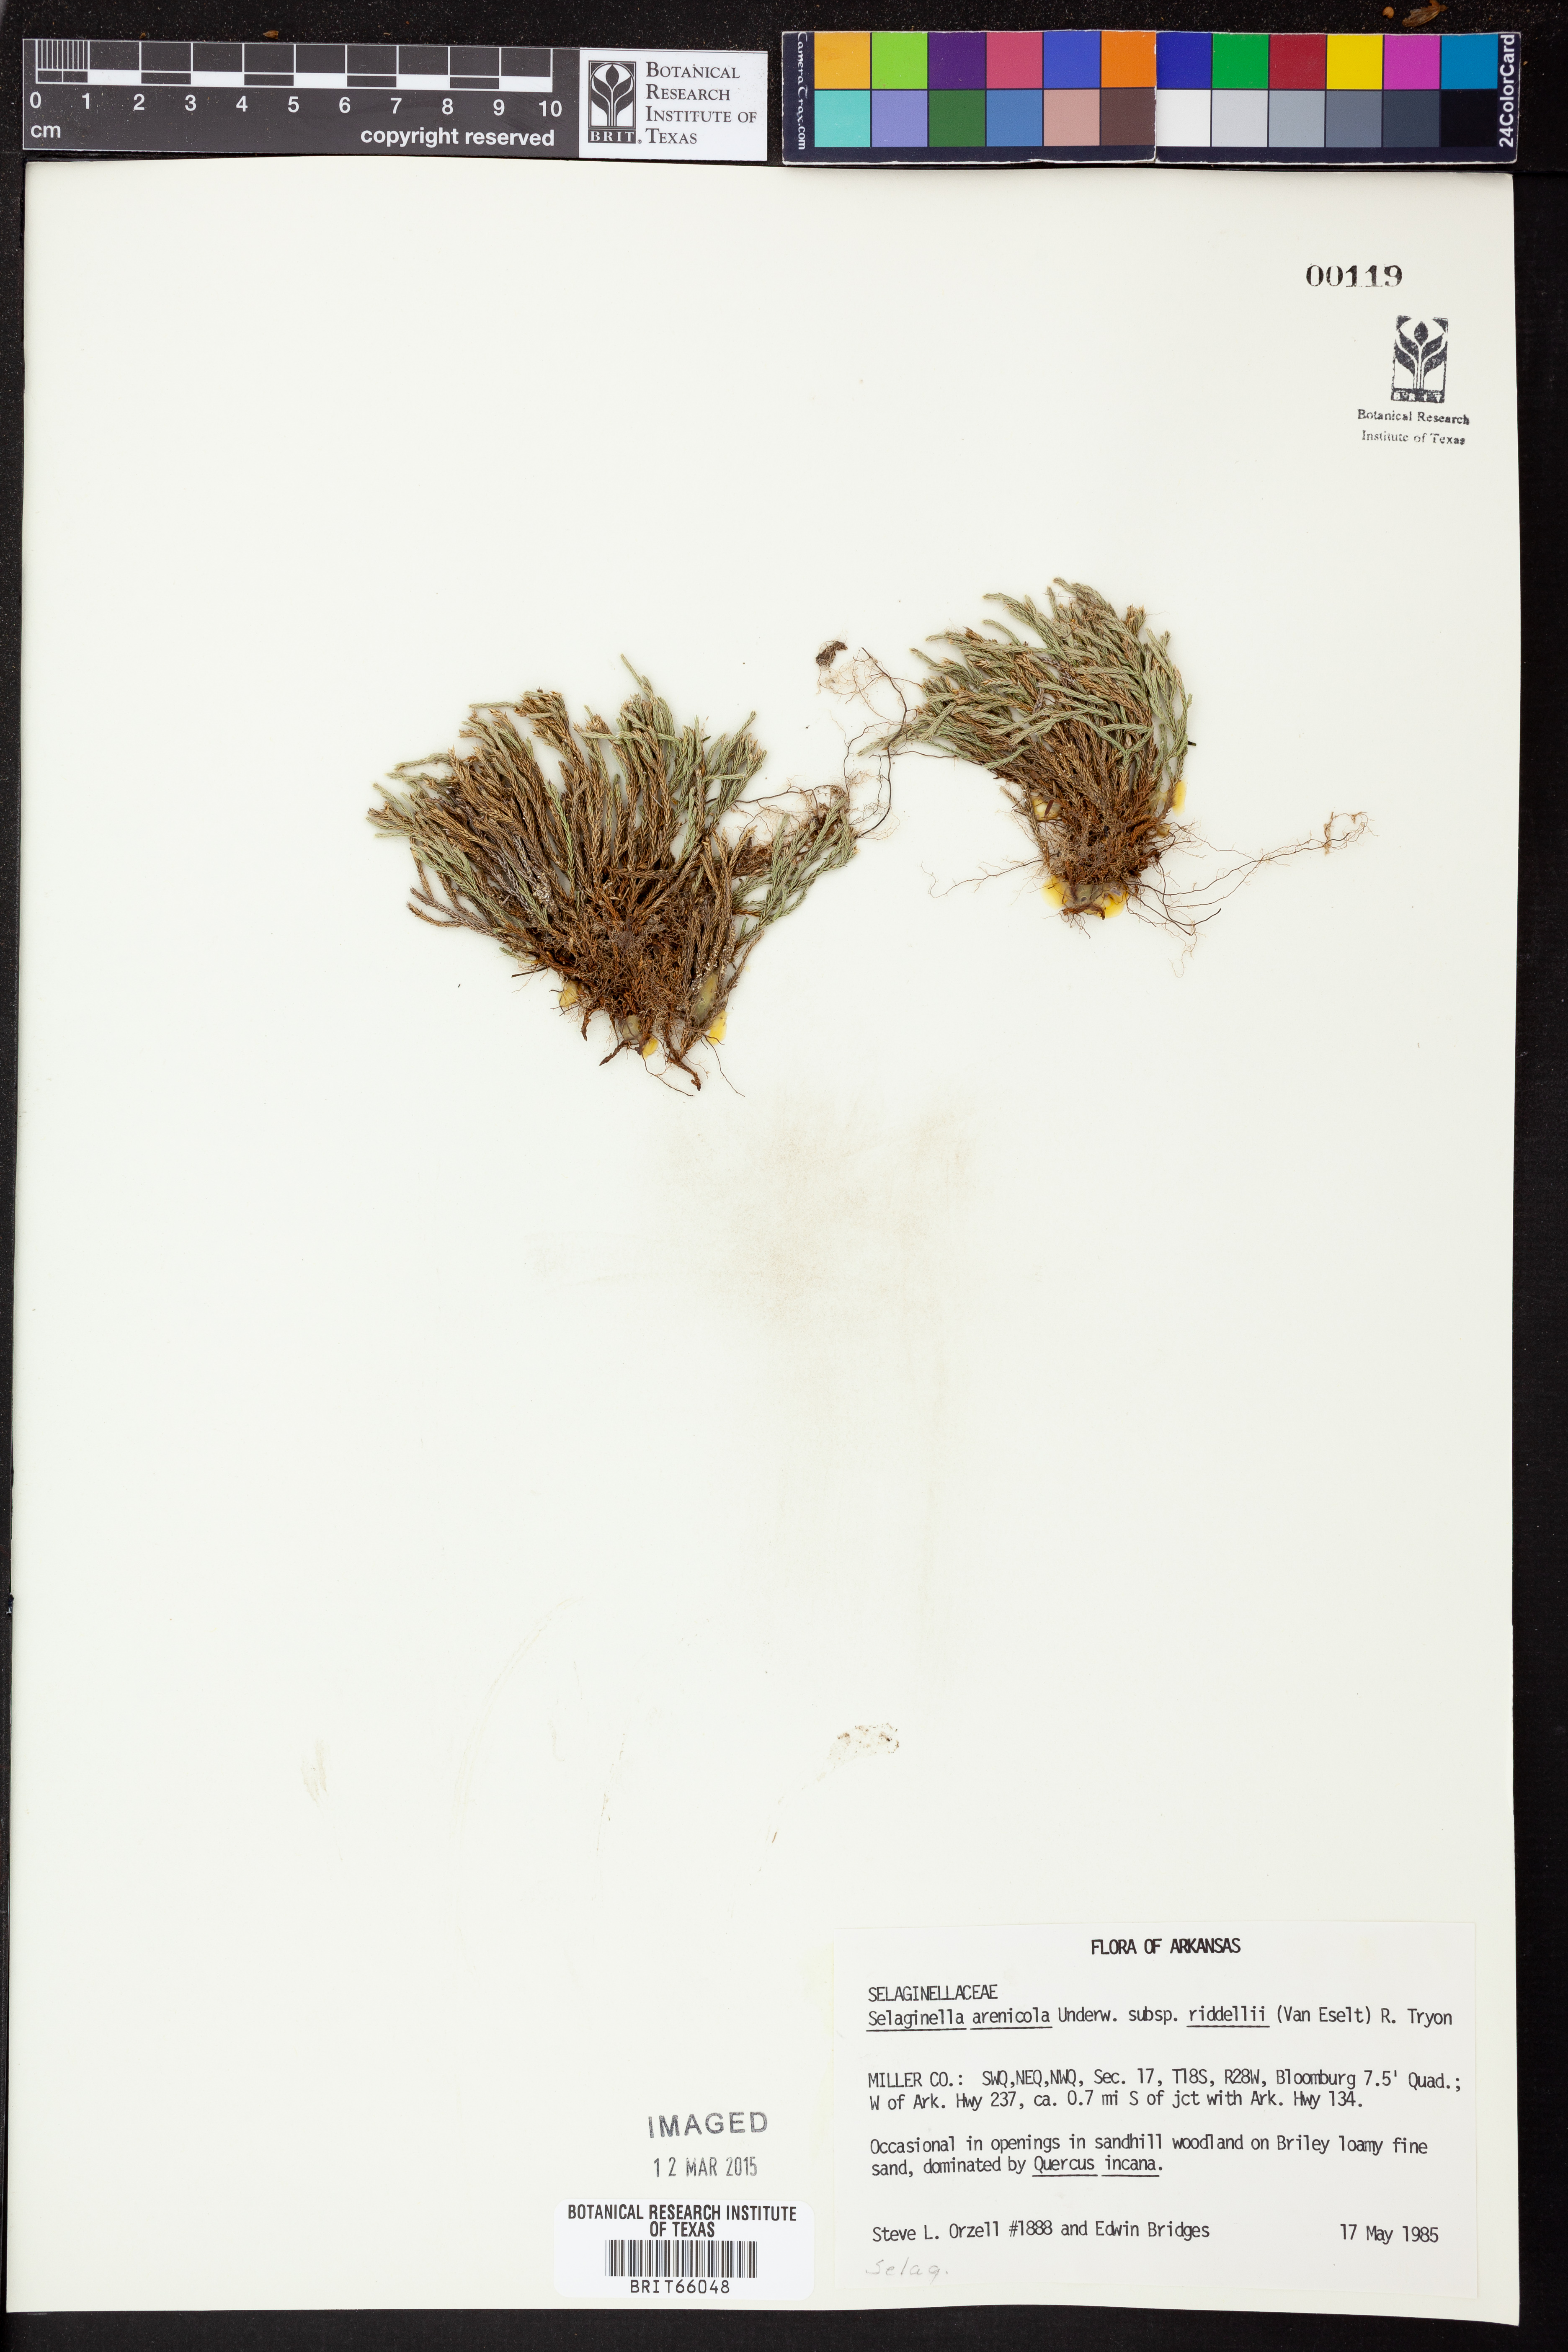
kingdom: Plantae
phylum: Tracheophyta
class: Lycopodiopsida
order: Selaginellales
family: Selaginellaceae
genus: Selaginella
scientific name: Selaginella corallina
